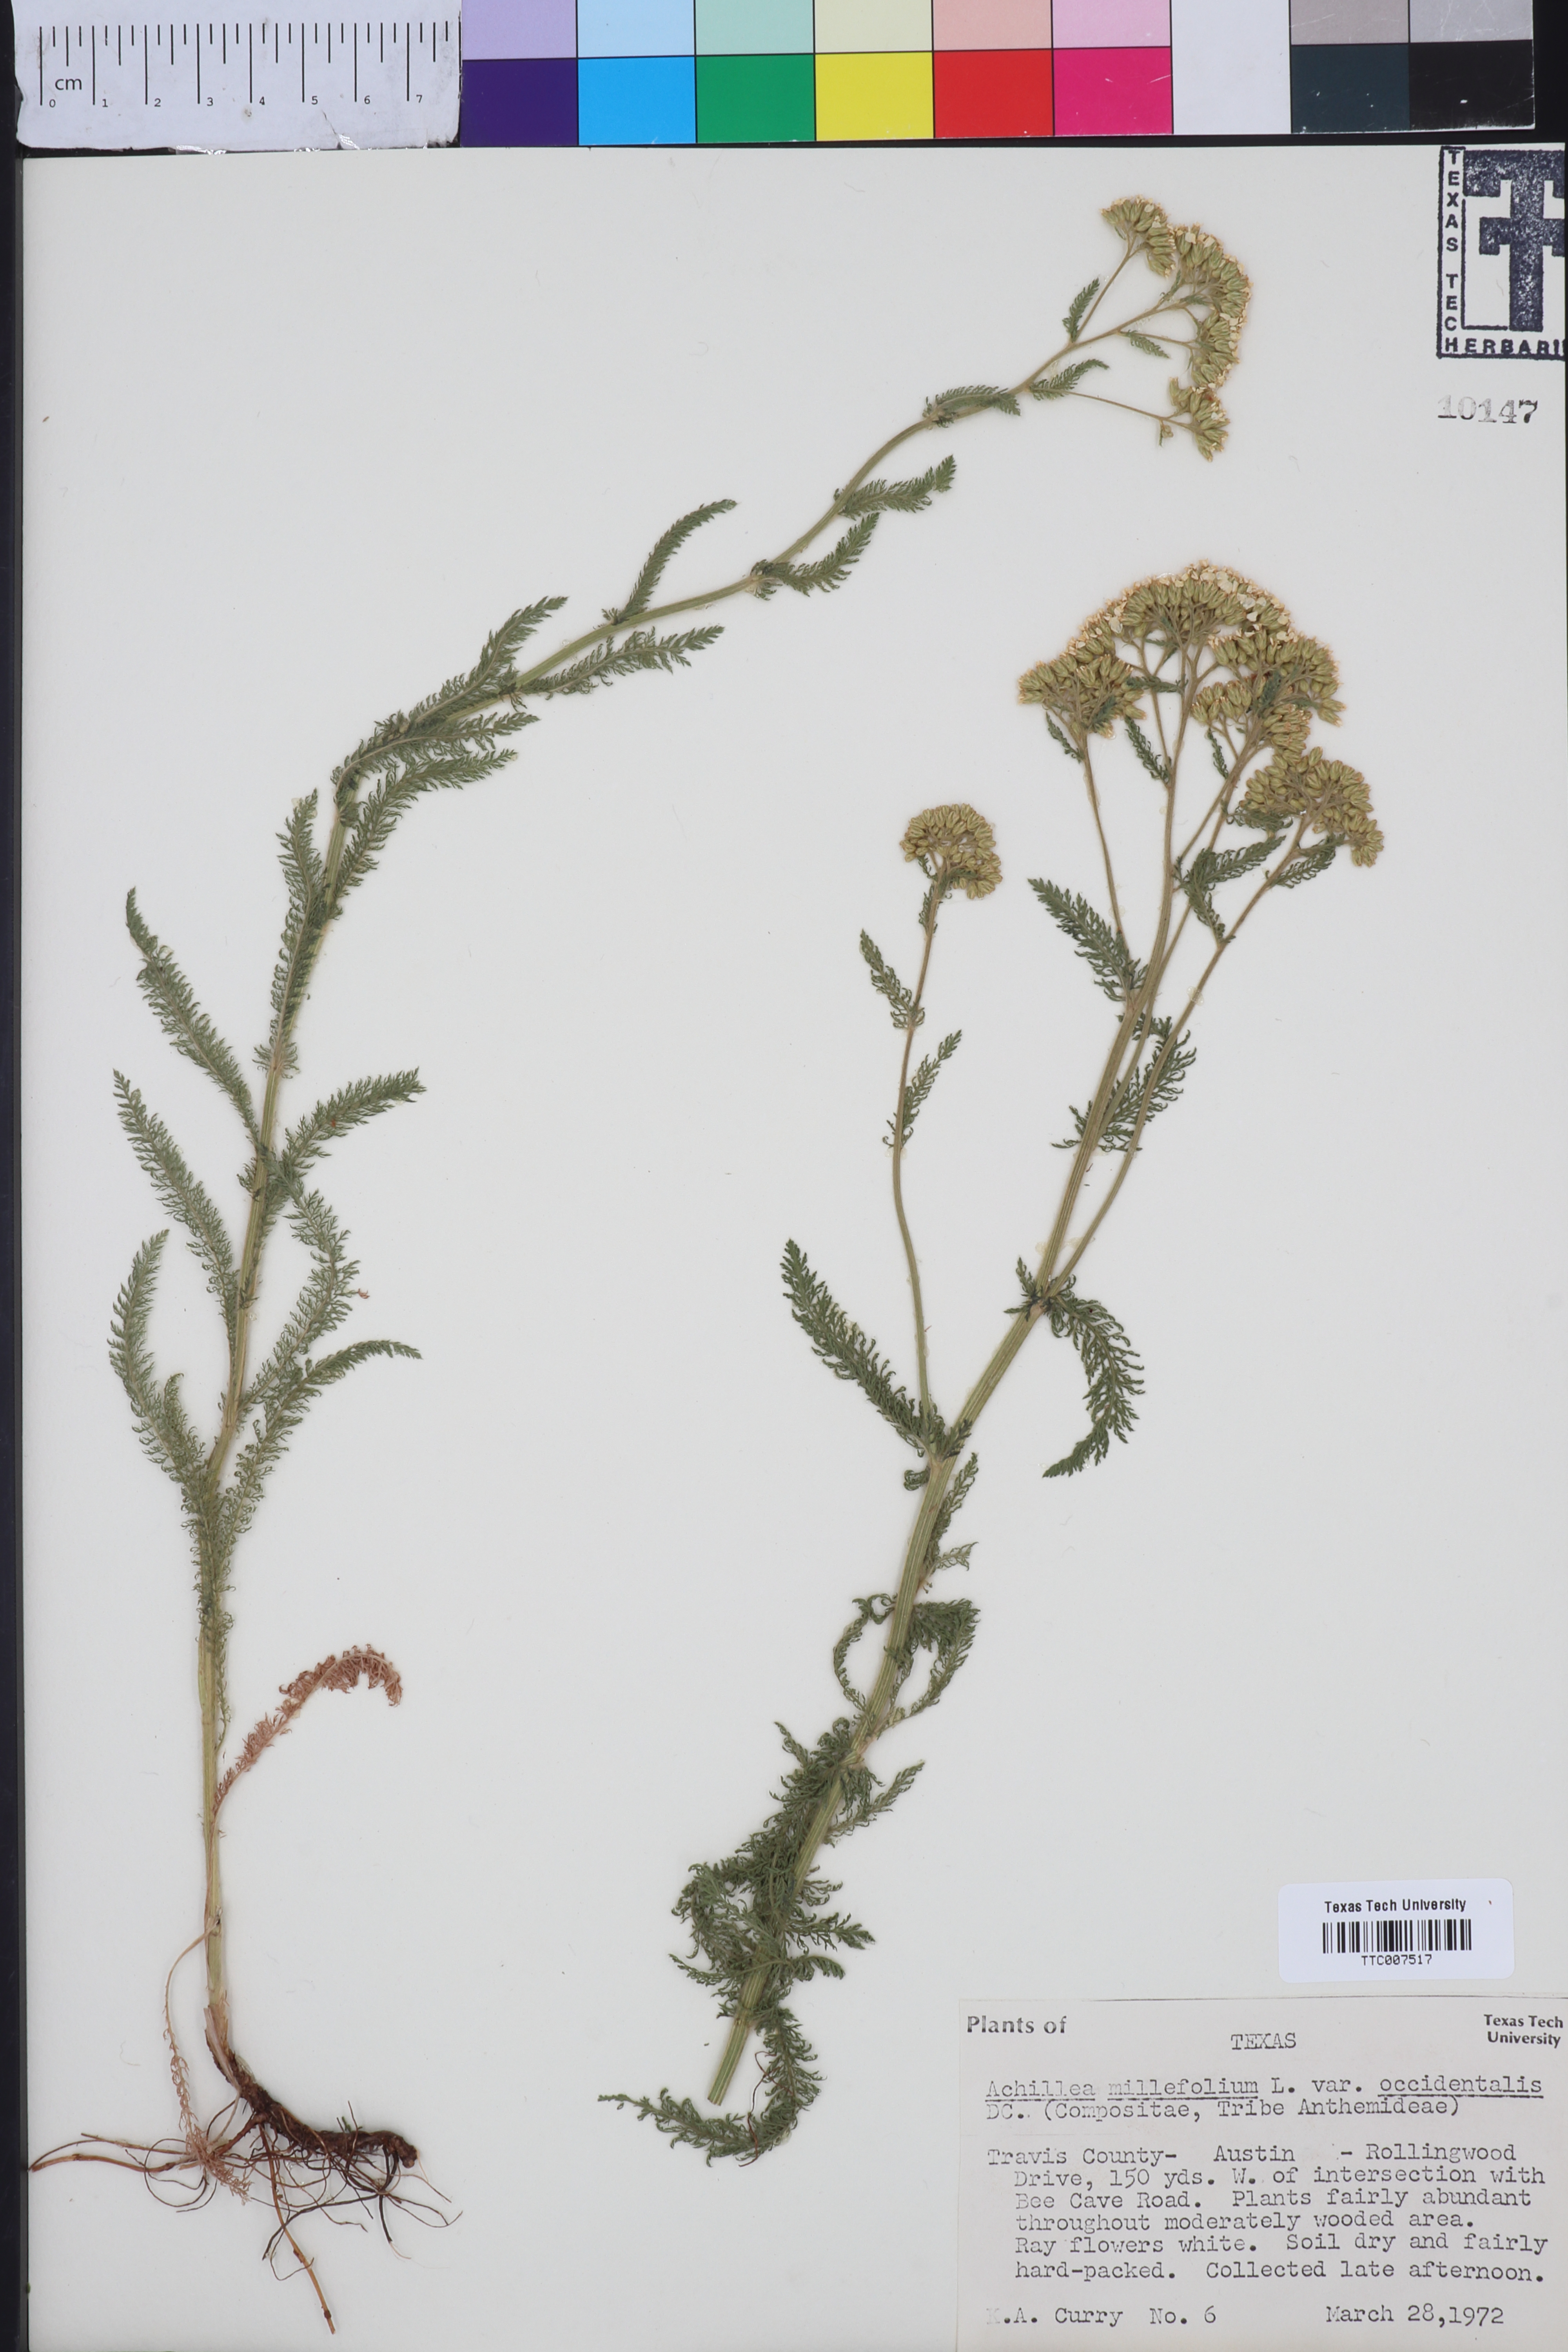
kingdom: Plantae
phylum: Tracheophyta
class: Magnoliopsida
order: Asterales
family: Asteraceae
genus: Achillea
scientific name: Achillea millefolium
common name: Yarrow
